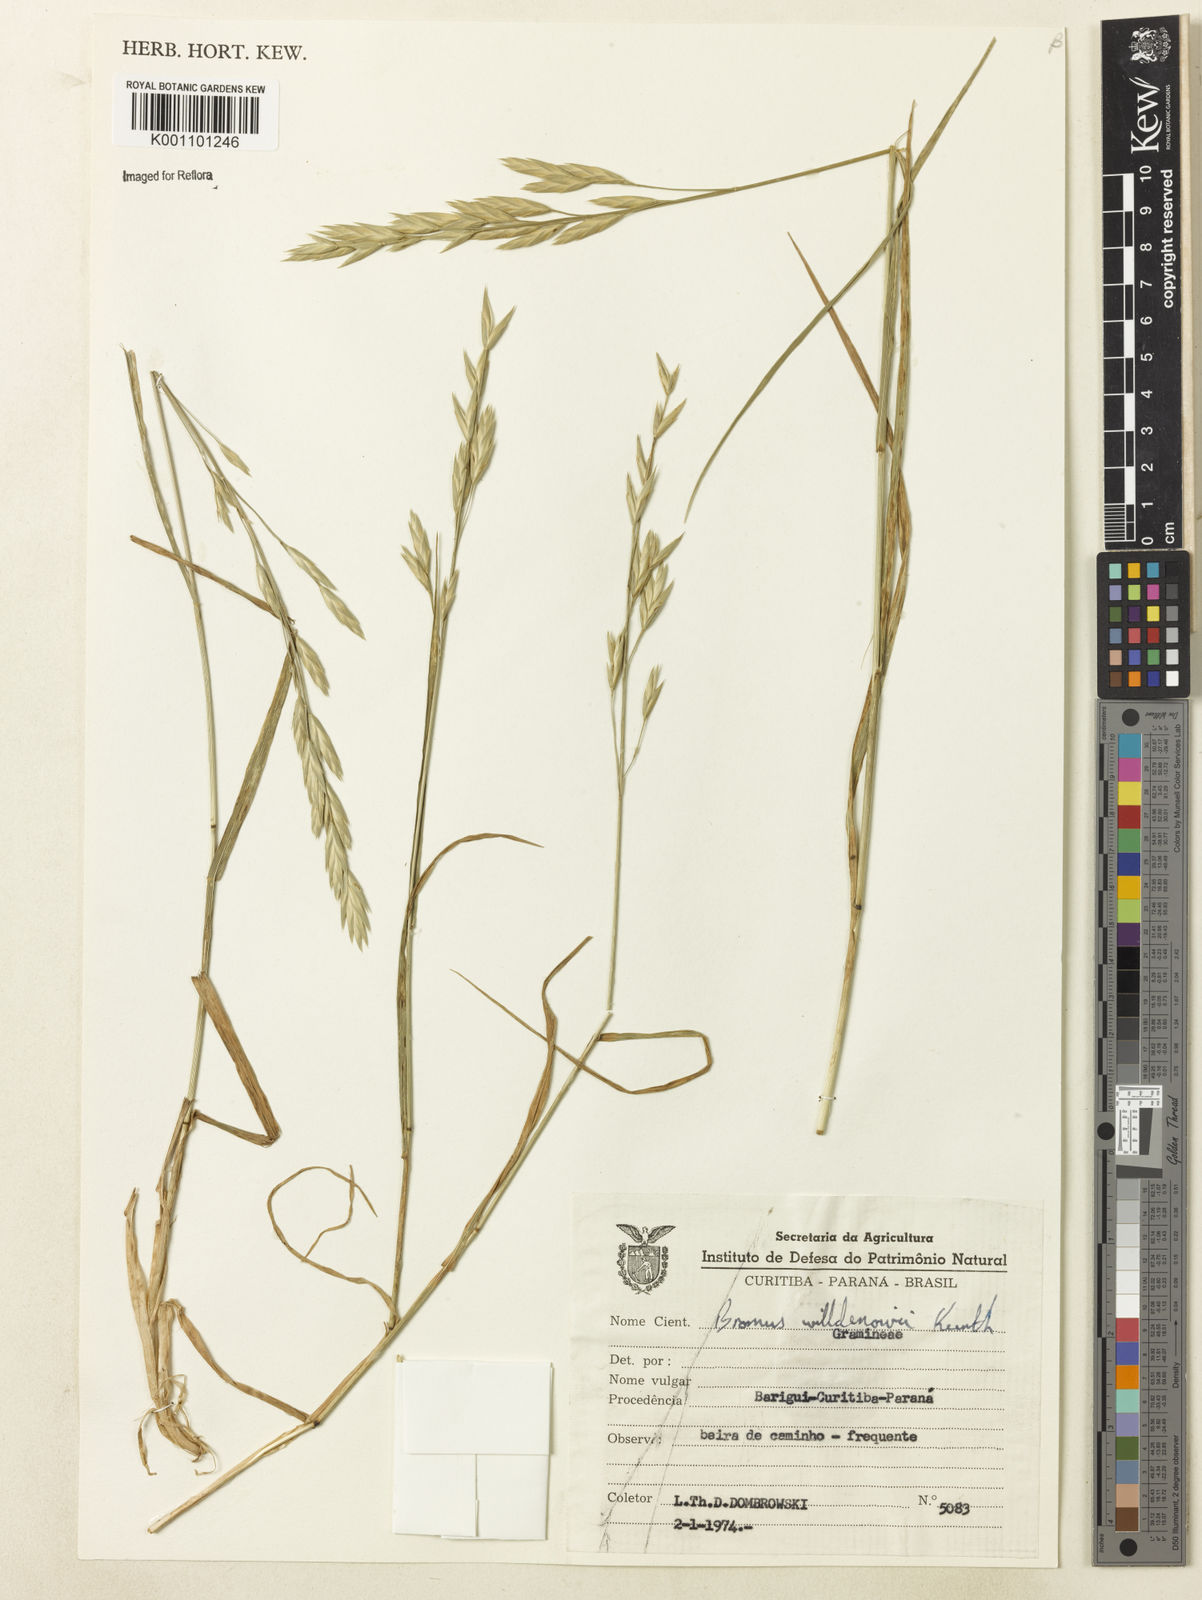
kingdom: Plantae
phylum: Tracheophyta
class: Liliopsida
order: Poales
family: Poaceae
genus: Bromus
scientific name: Bromus catharticus
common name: Rescuegrass
